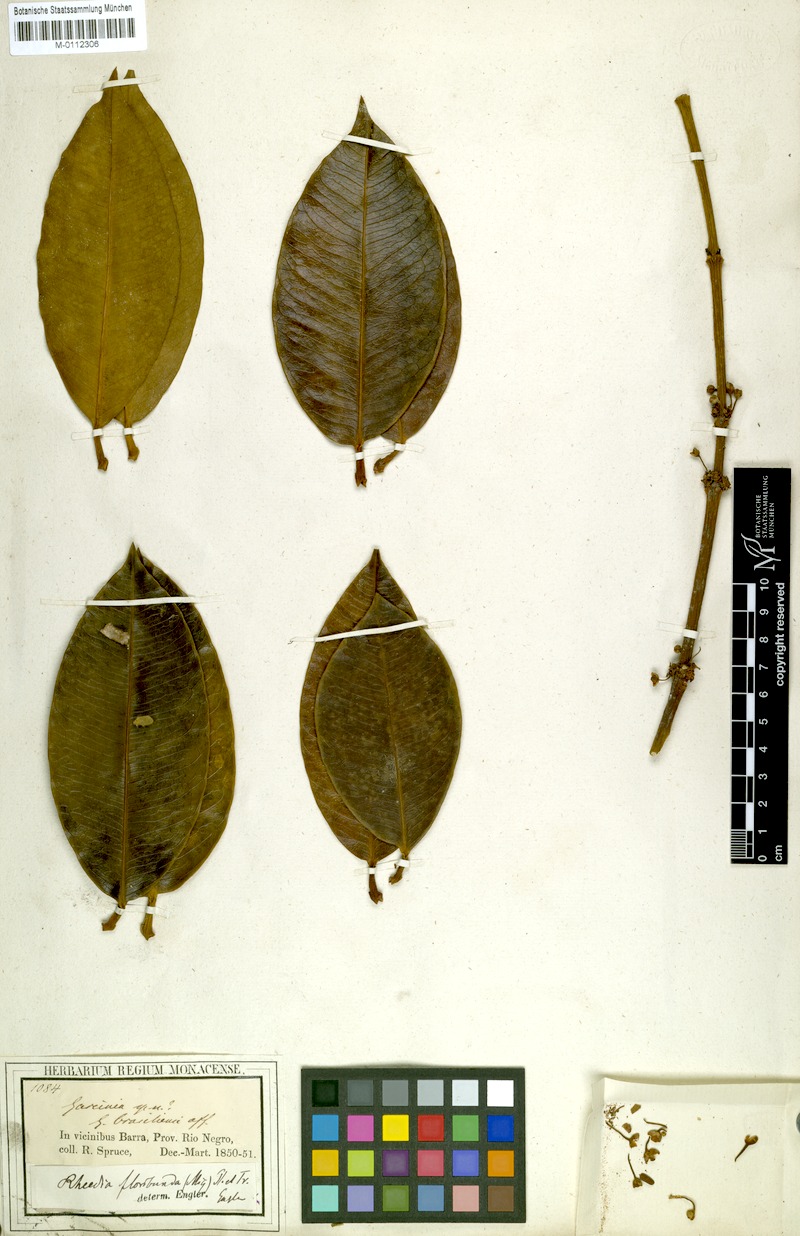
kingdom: Plantae
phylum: Tracheophyta
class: Magnoliopsida
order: Malpighiales
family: Clusiaceae
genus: Garcinia
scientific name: Garcinia madruno
